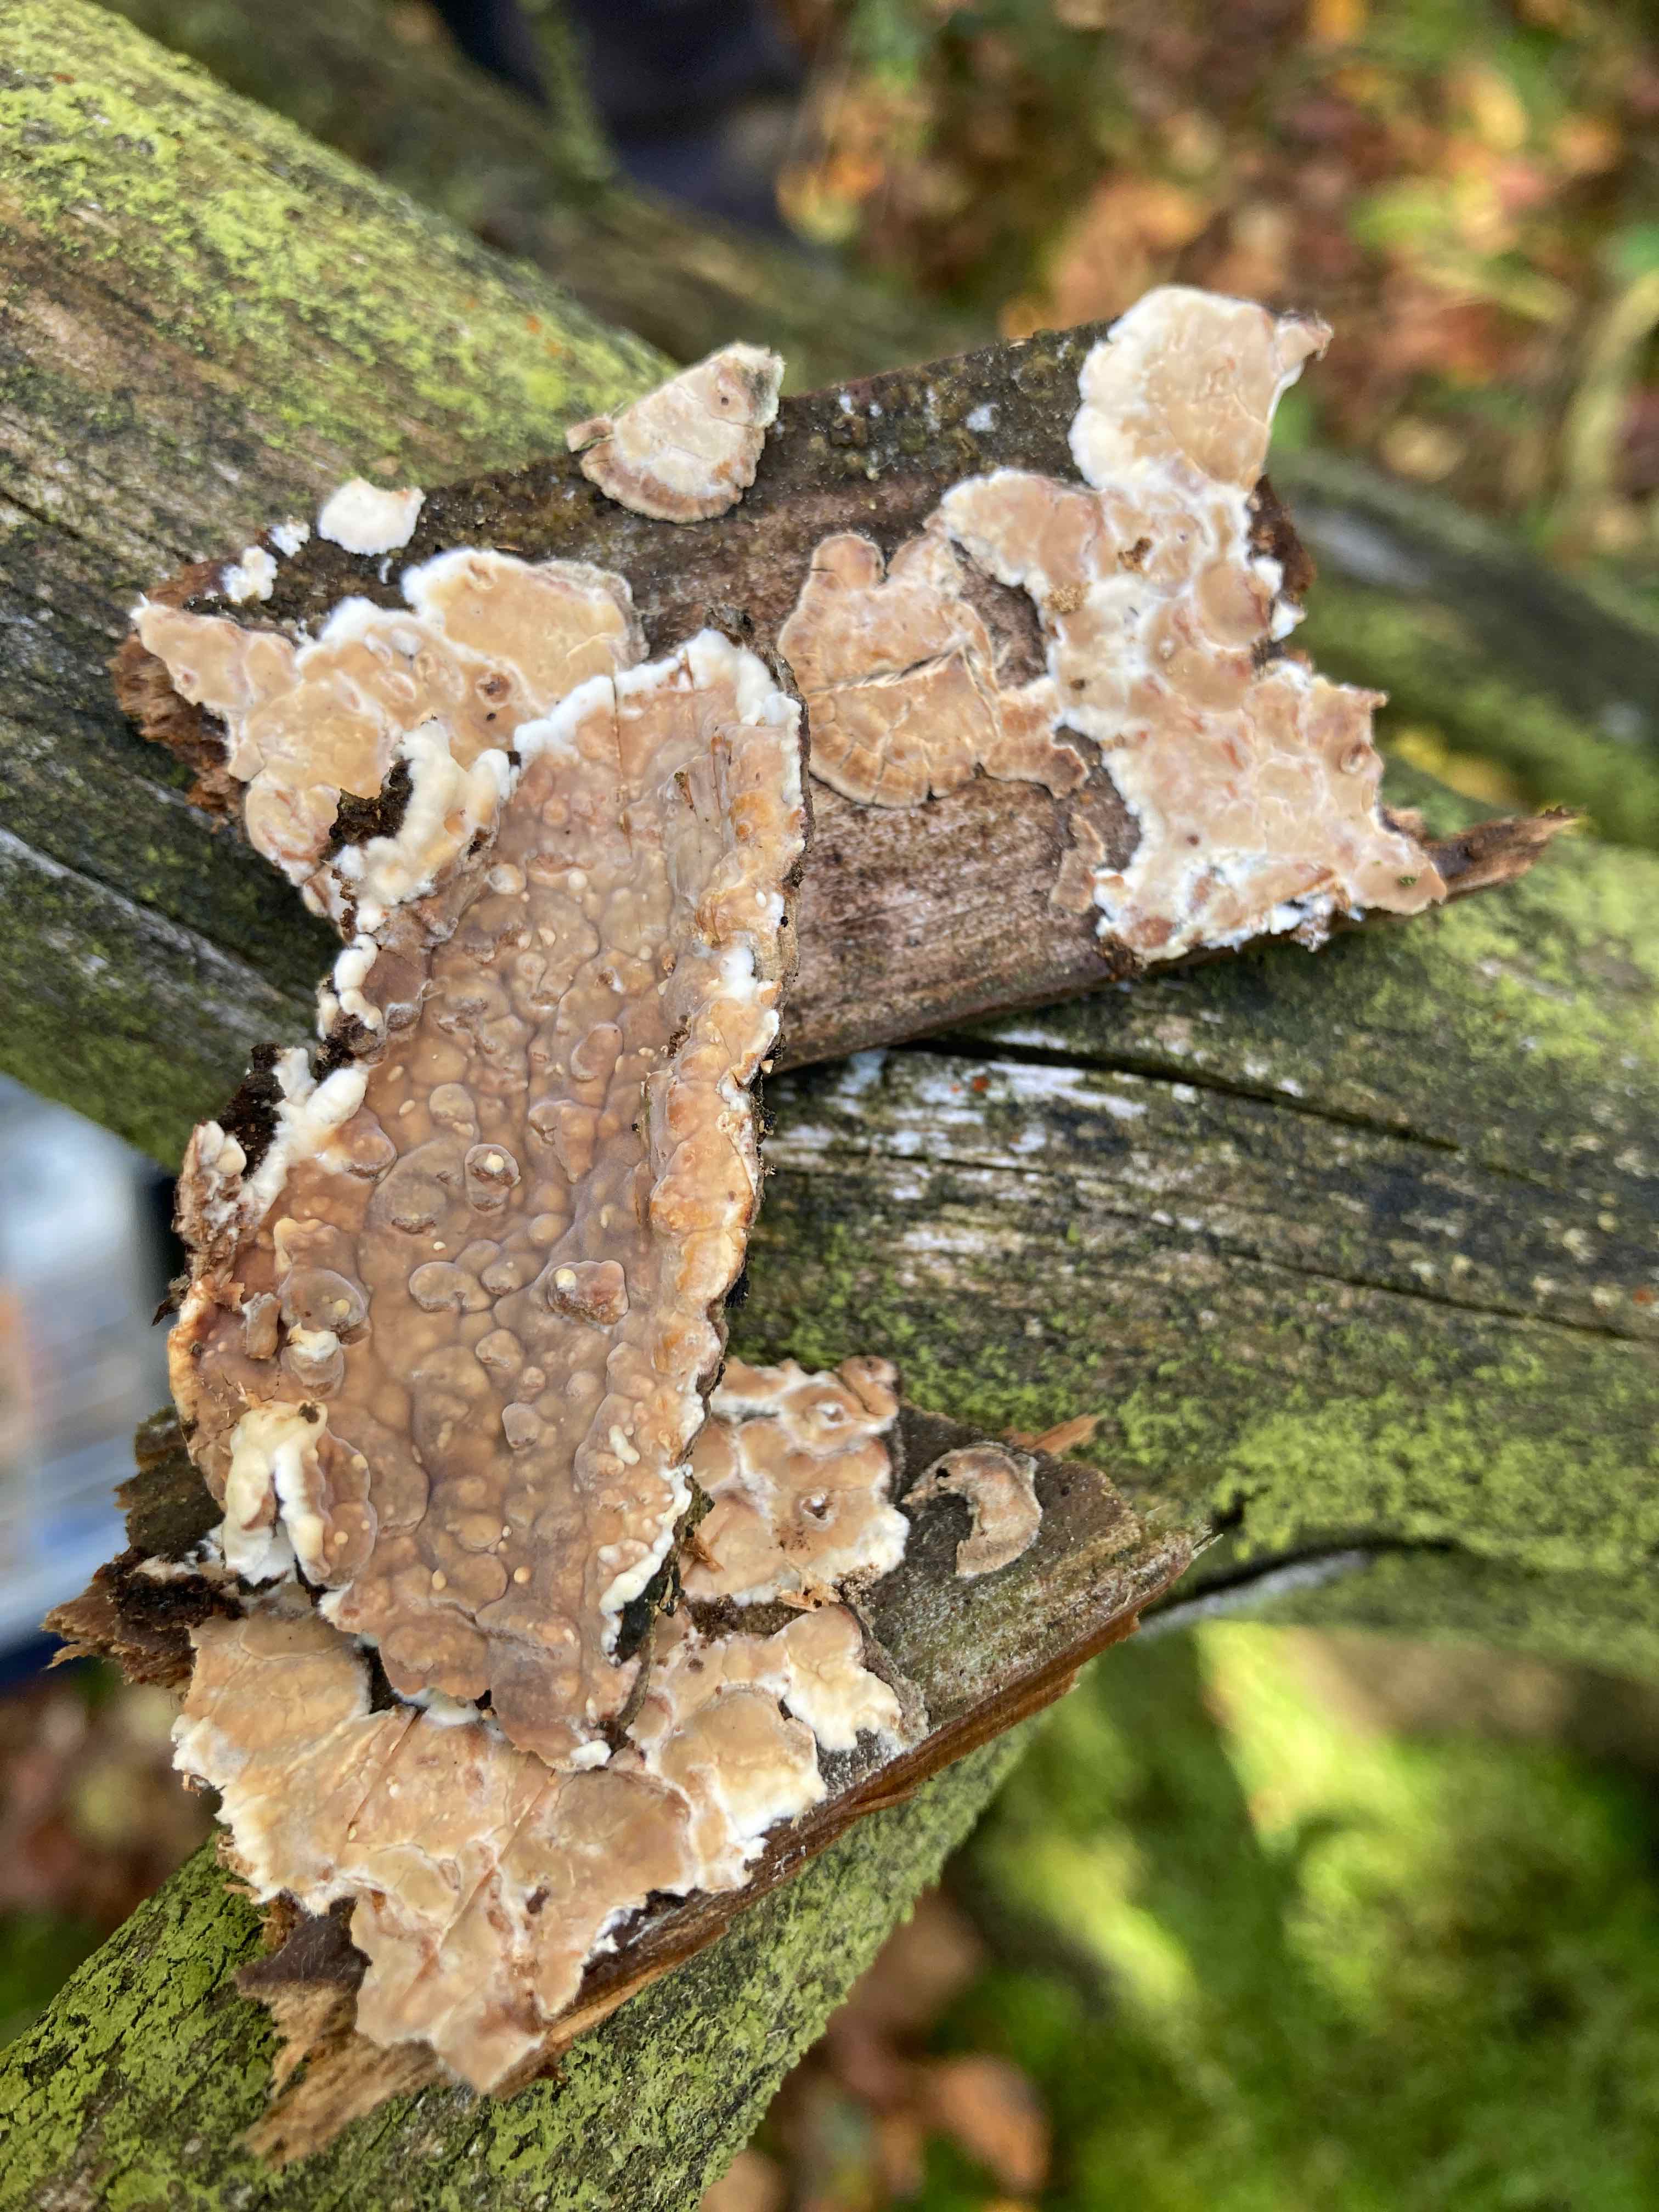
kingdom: Fungi
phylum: Basidiomycota
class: Agaricomycetes
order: Polyporales
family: Dacryobolaceae
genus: Dacryobolus
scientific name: Dacryobolus karstenii
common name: glat vulkanskorpe
